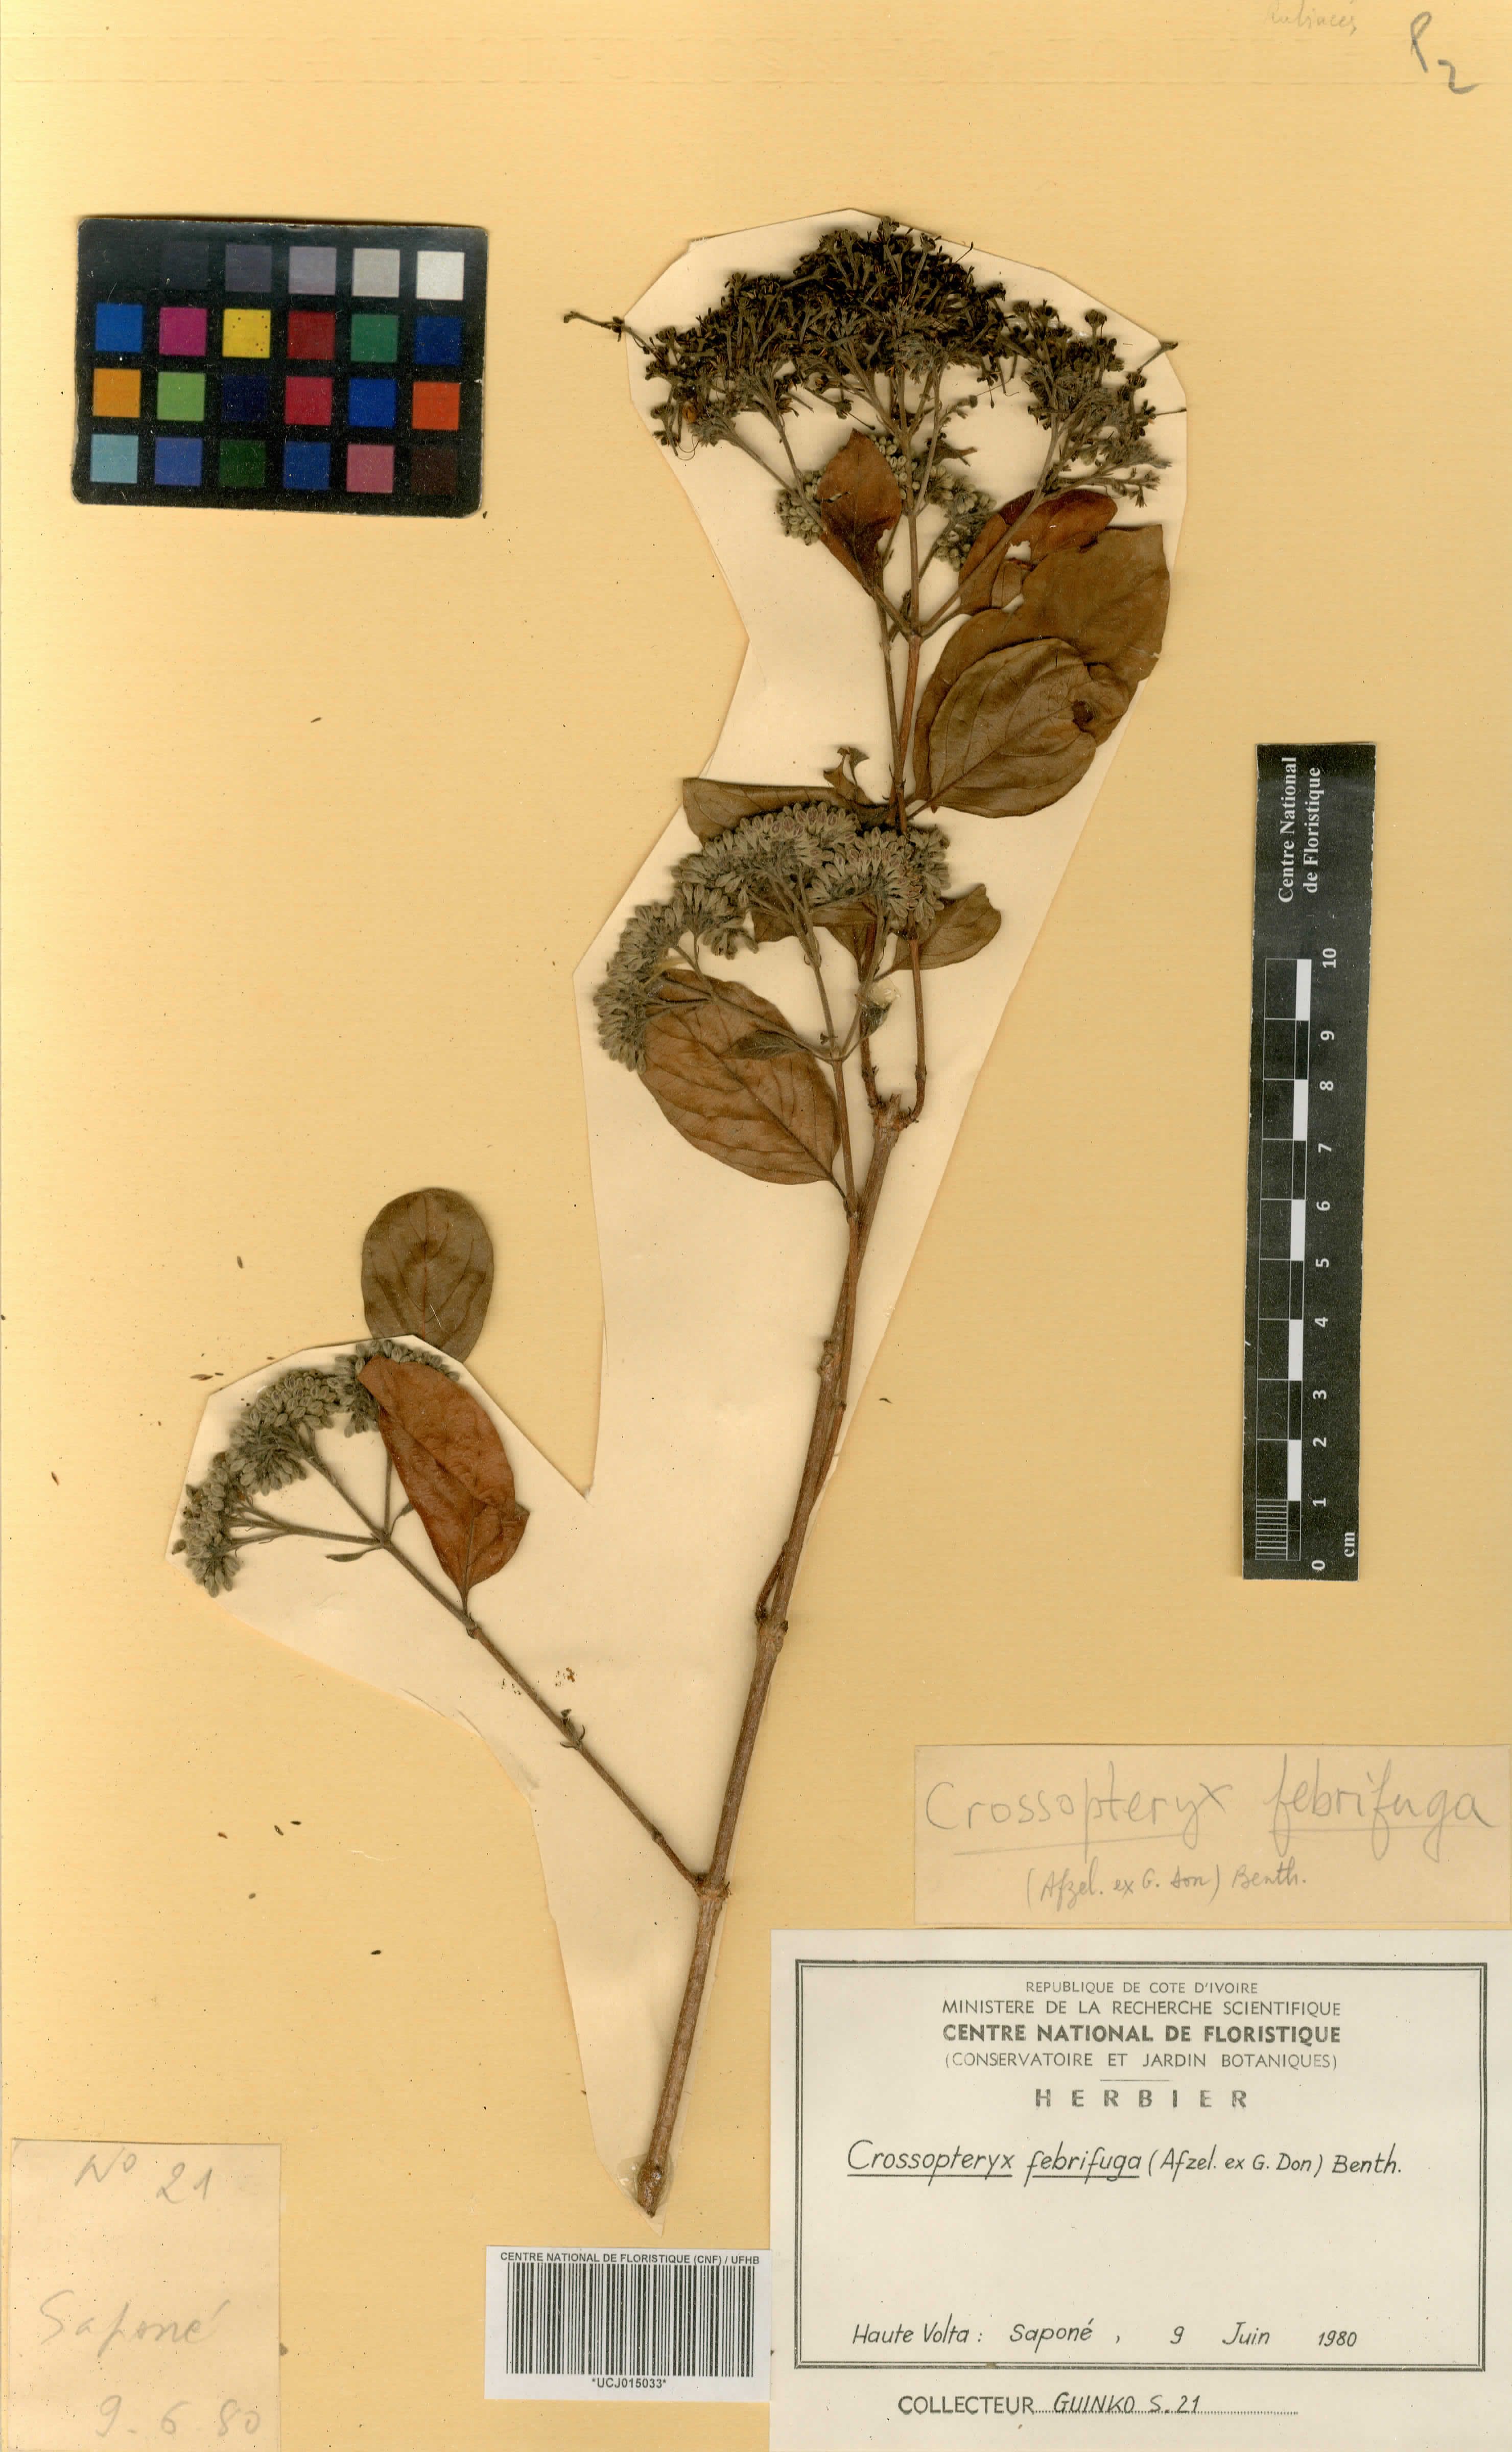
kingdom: Plantae
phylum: Tracheophyta
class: Magnoliopsida
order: Gentianales
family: Rubiaceae
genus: Crossopteryx
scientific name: Crossopteryx febrifuga
